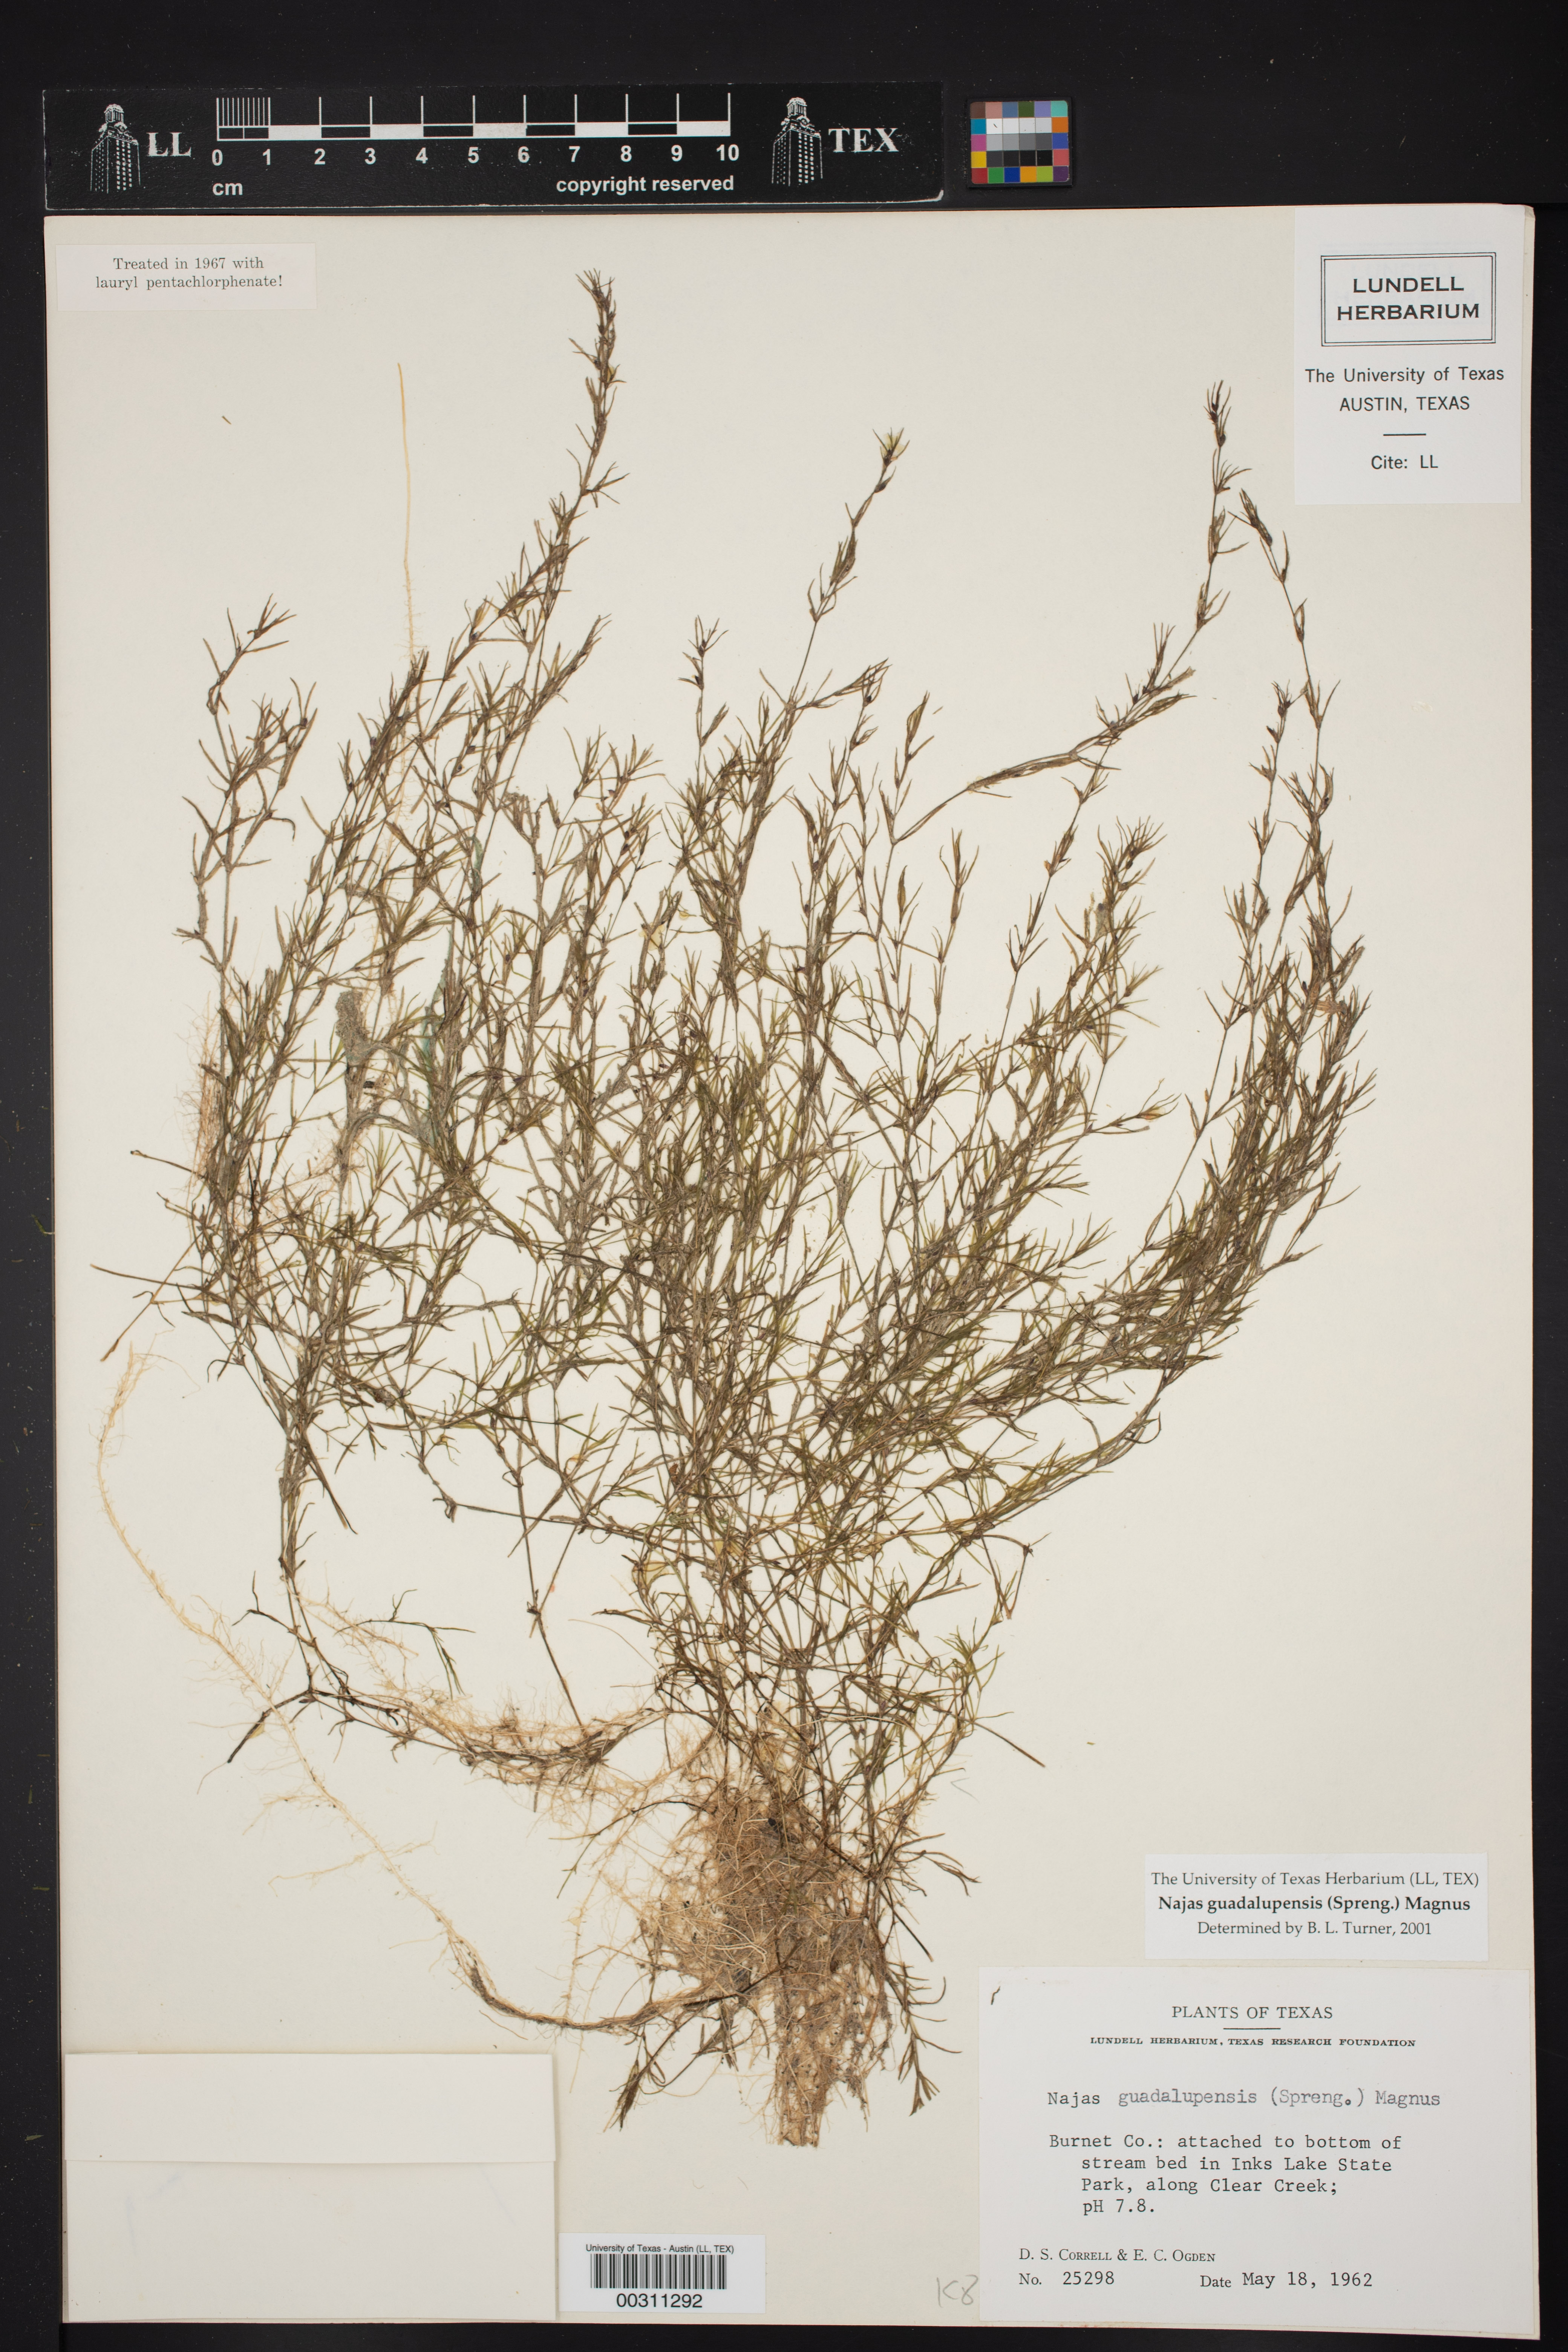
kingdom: Plantae
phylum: Tracheophyta
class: Liliopsida
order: Alismatales
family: Hydrocharitaceae
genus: Najas
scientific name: Najas guadalupensis
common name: Southern naiad
